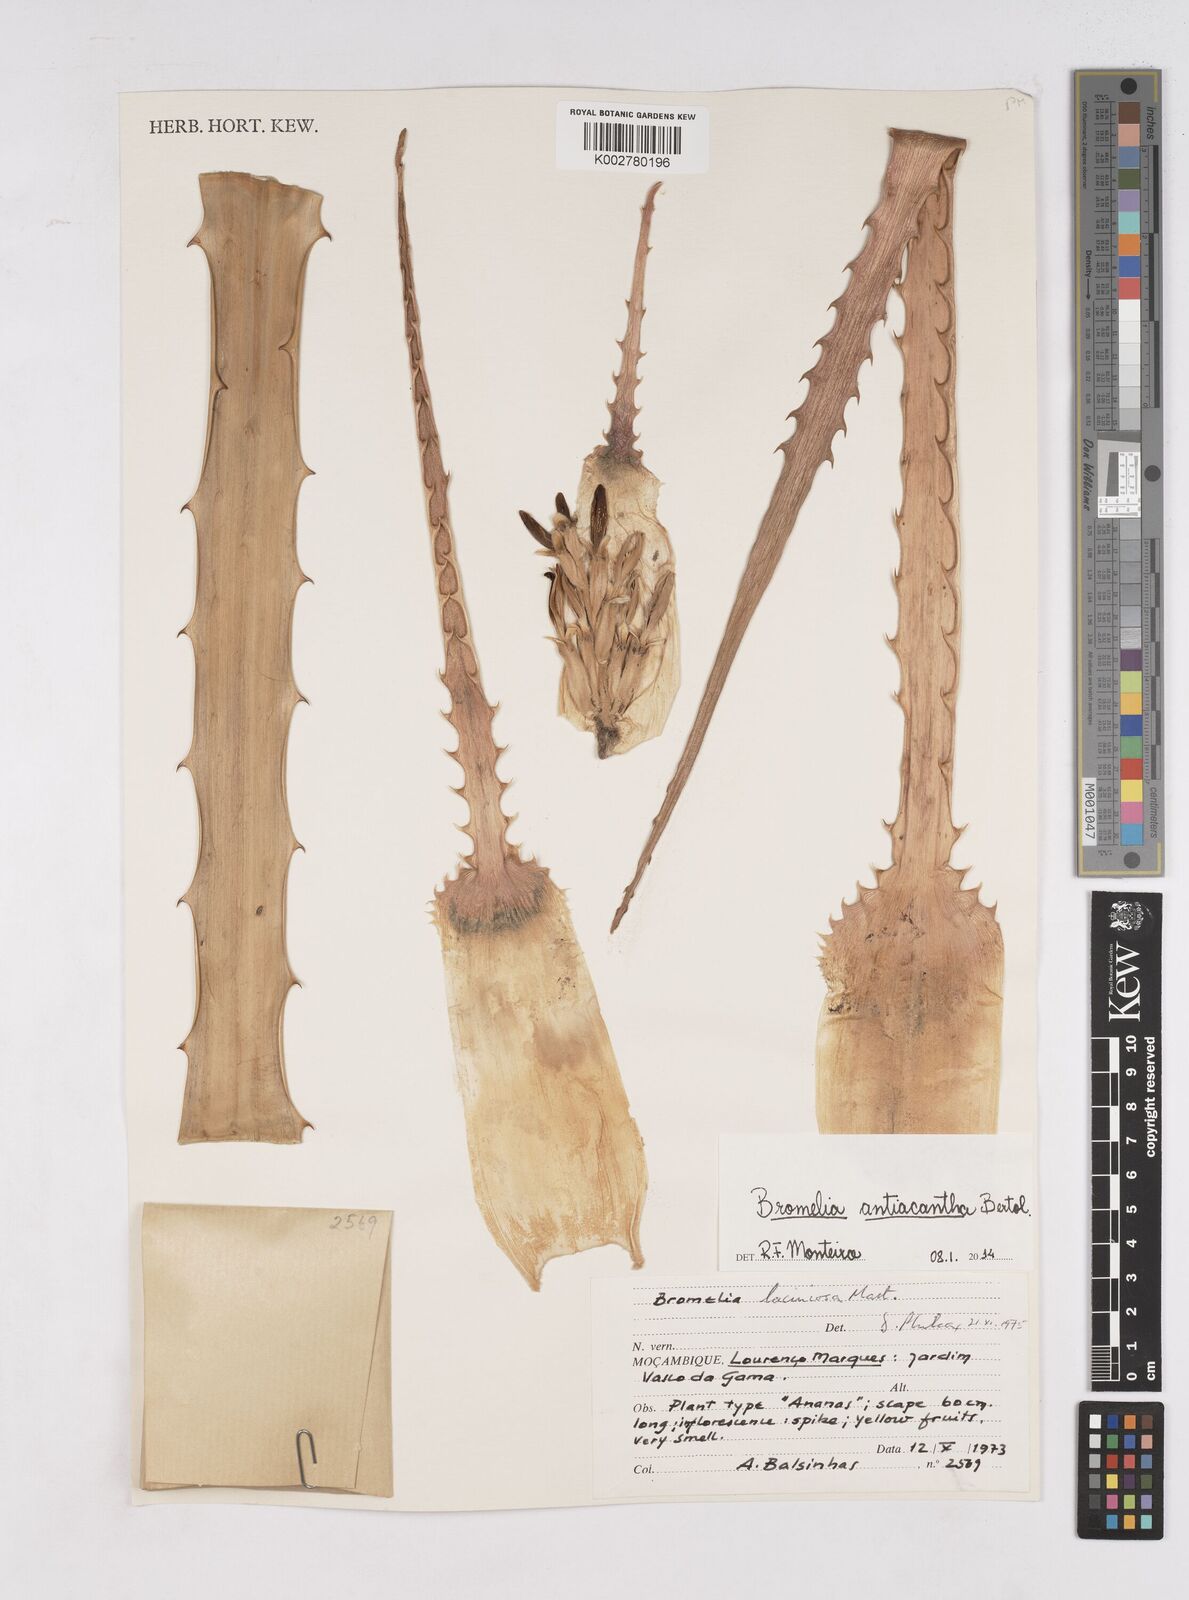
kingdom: Plantae
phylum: Tracheophyta
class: Liliopsida
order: Poales
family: Bromeliaceae
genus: Bromelia
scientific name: Bromelia laciniosa
